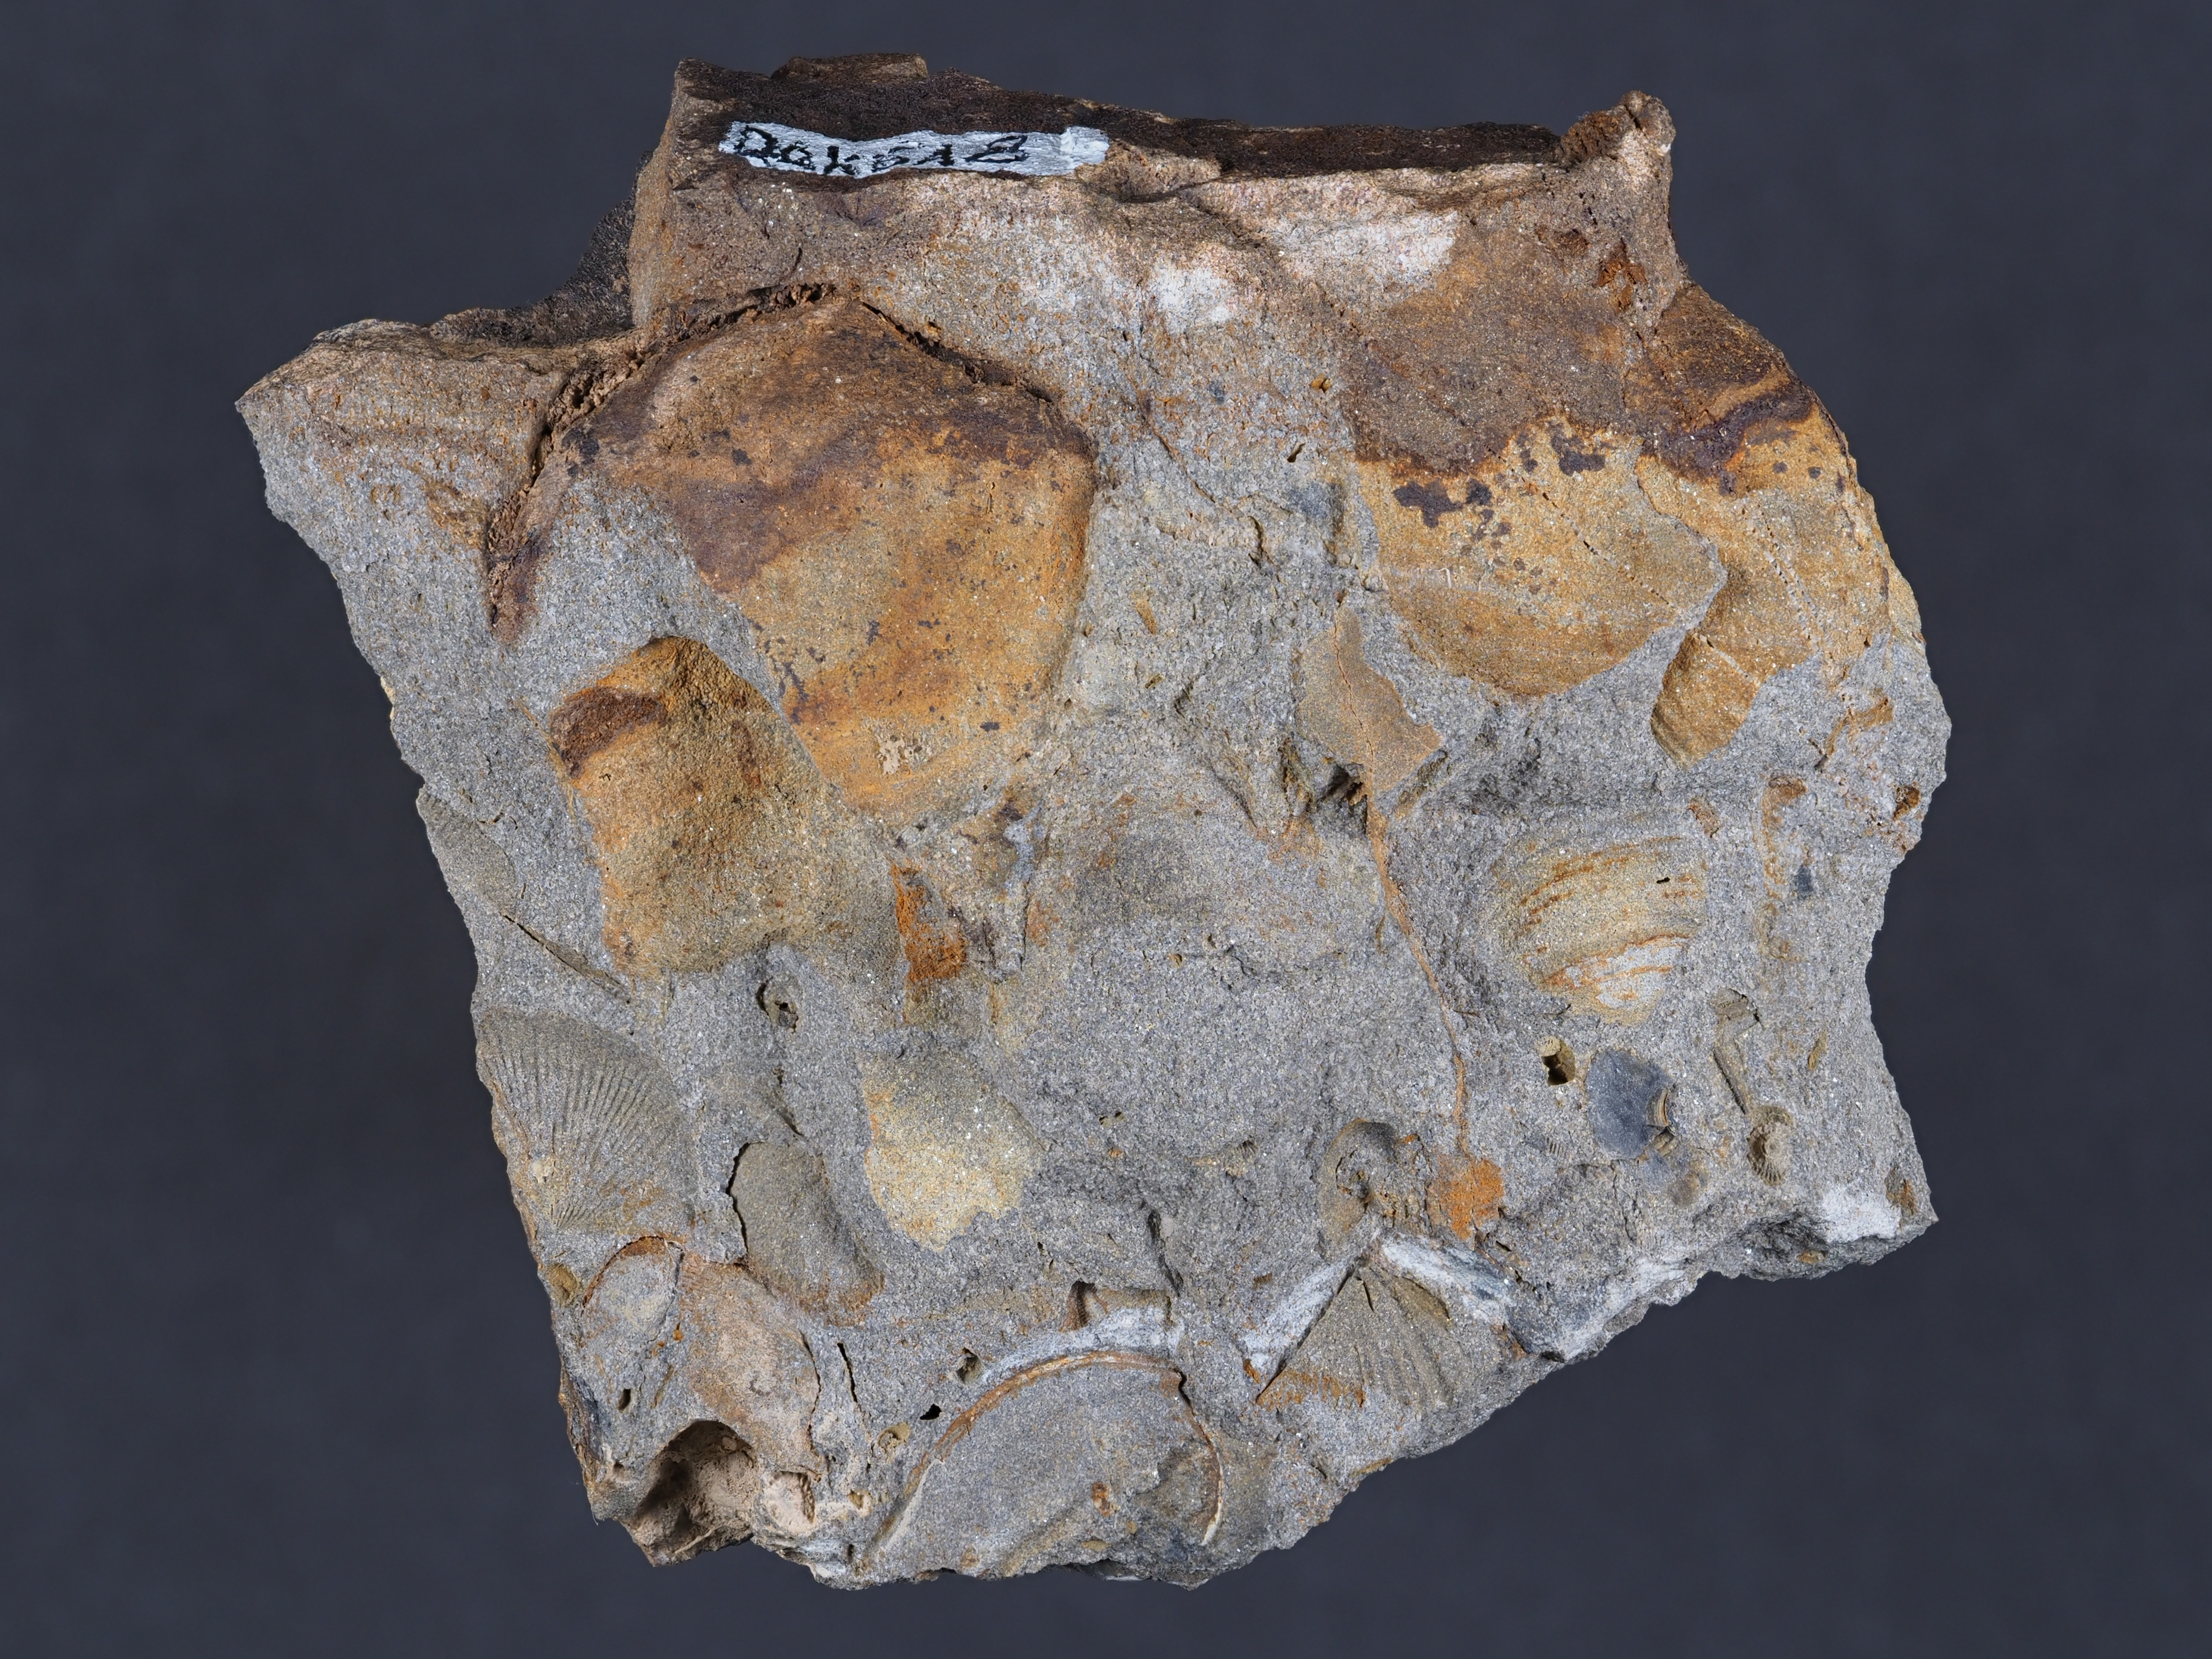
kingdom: Animalia
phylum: Mollusca
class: Bivalvia
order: Carditida
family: Crassatellidae
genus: Cypricardella
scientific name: Cypricardella
